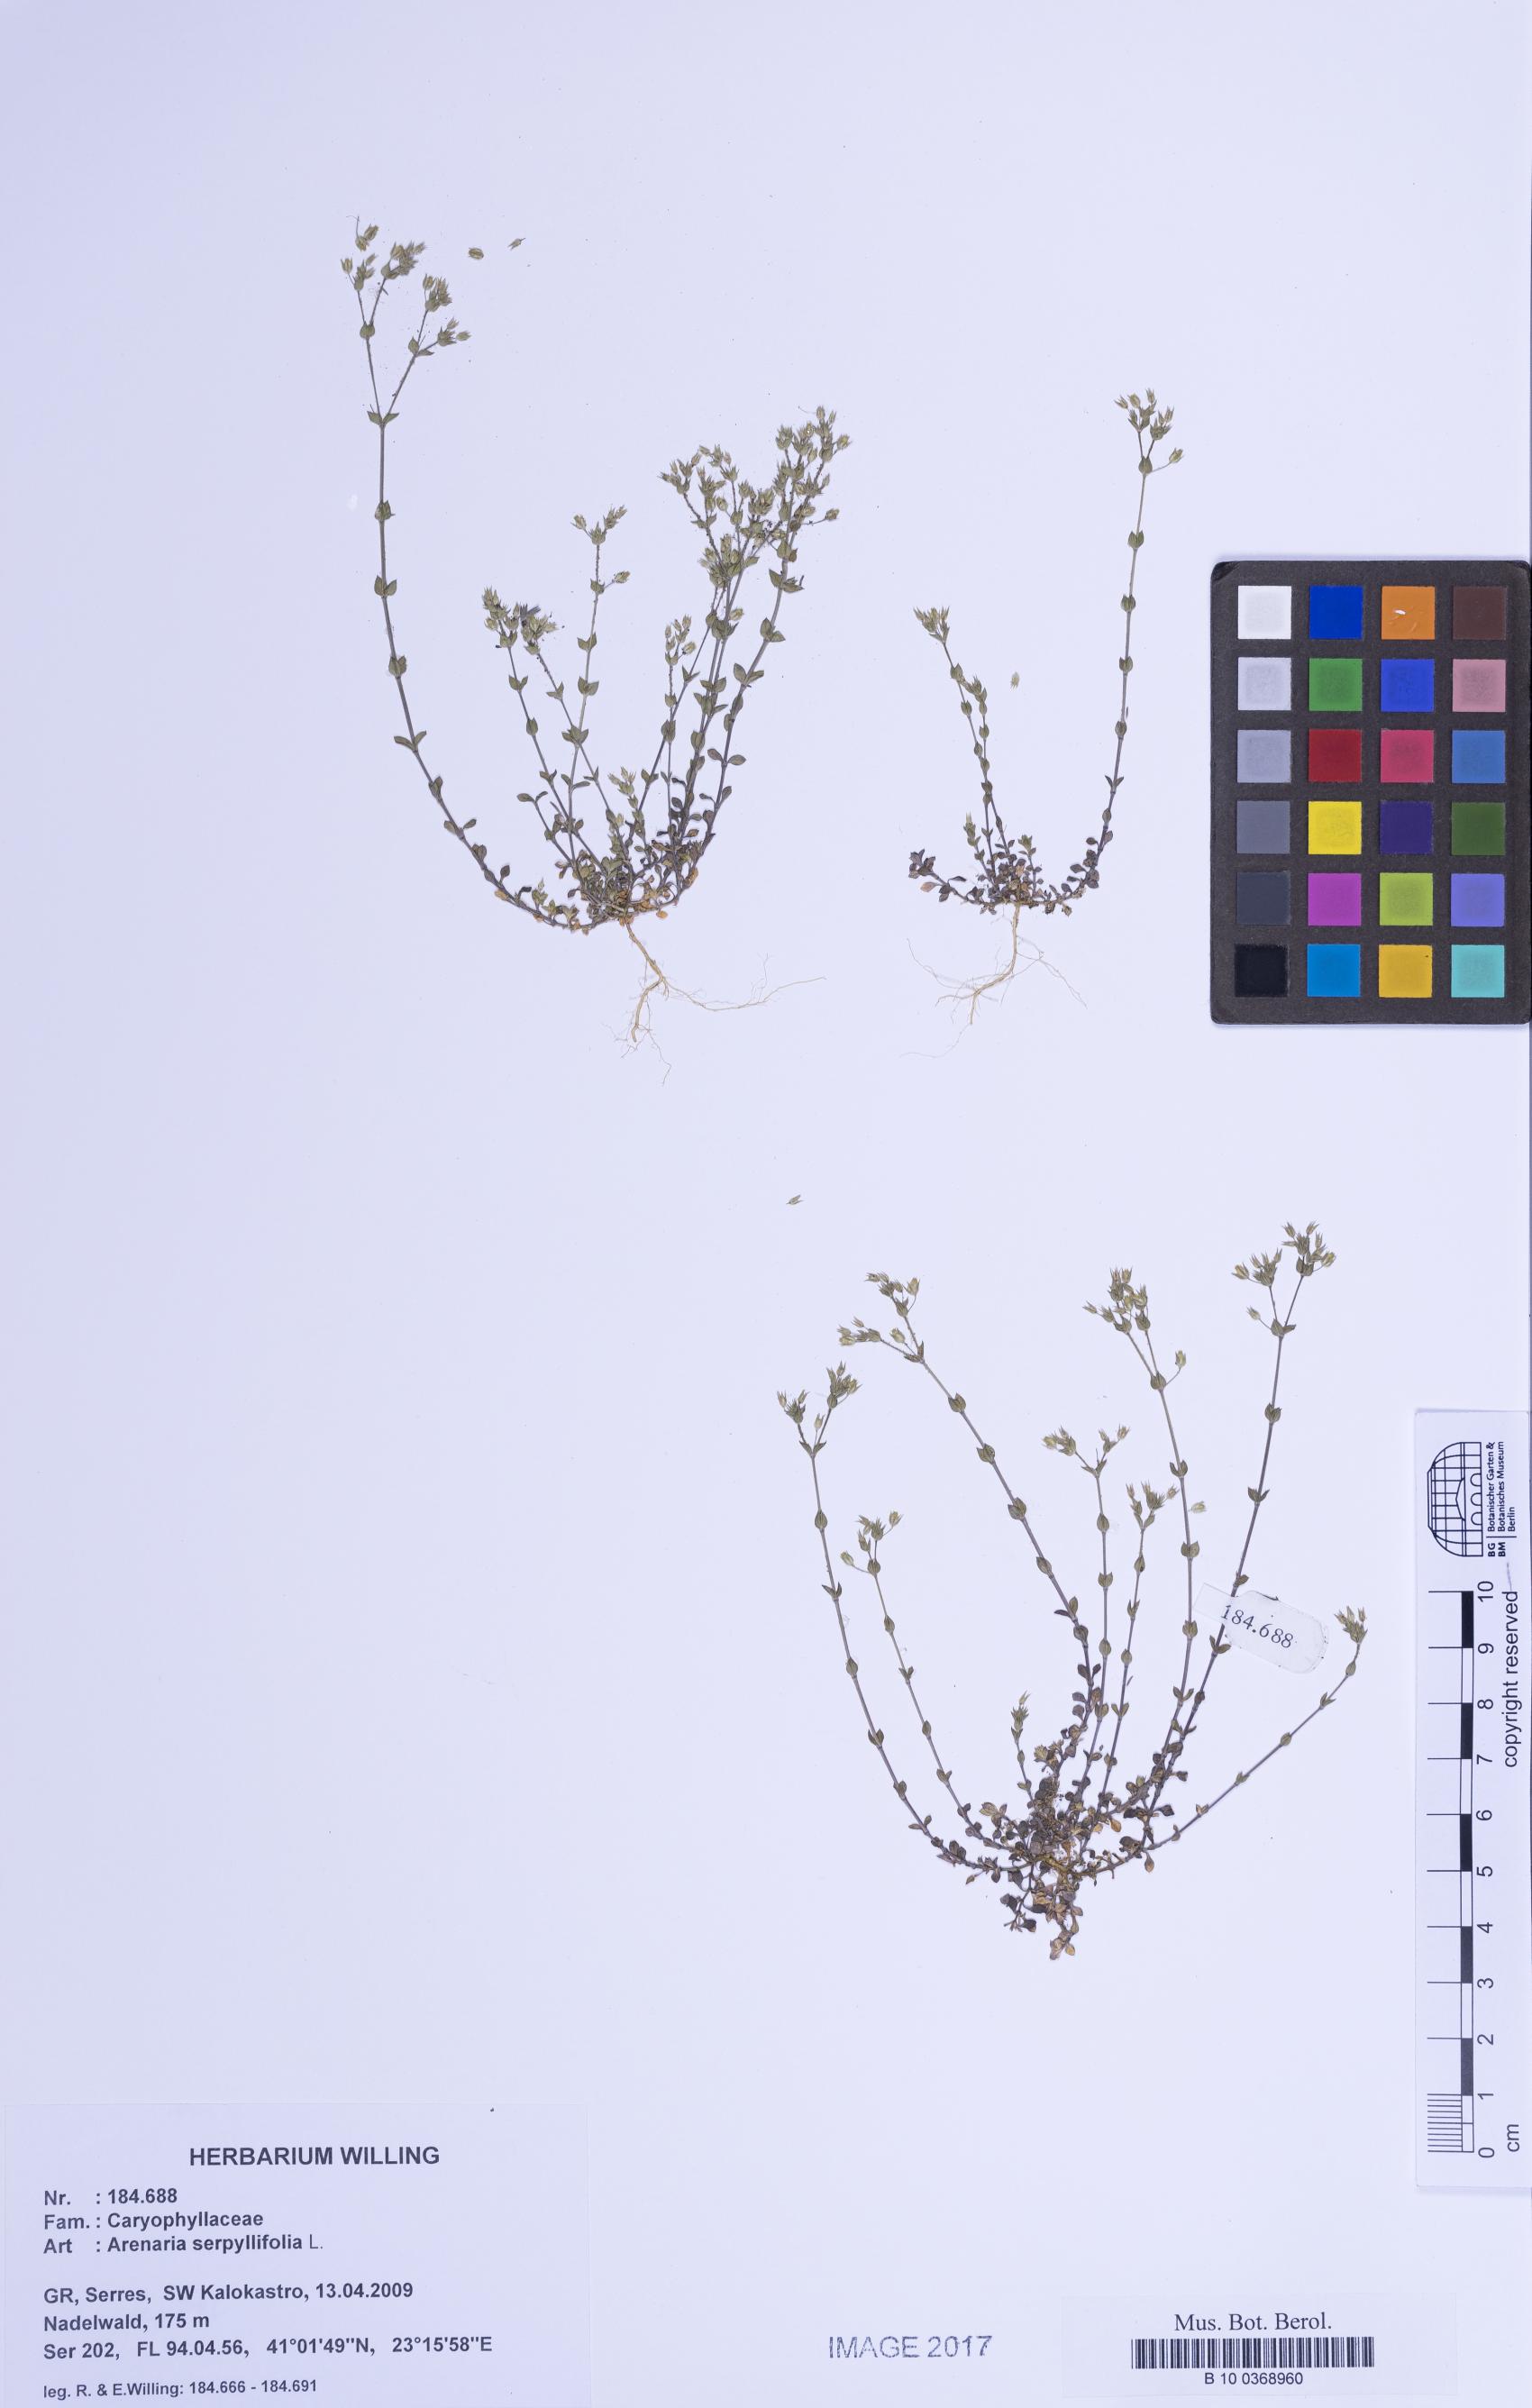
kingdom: Plantae
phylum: Tracheophyta
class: Magnoliopsida
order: Caryophyllales
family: Caryophyllaceae
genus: Arenaria
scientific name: Arenaria serpyllifolia
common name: Thyme-leaved sandwort
